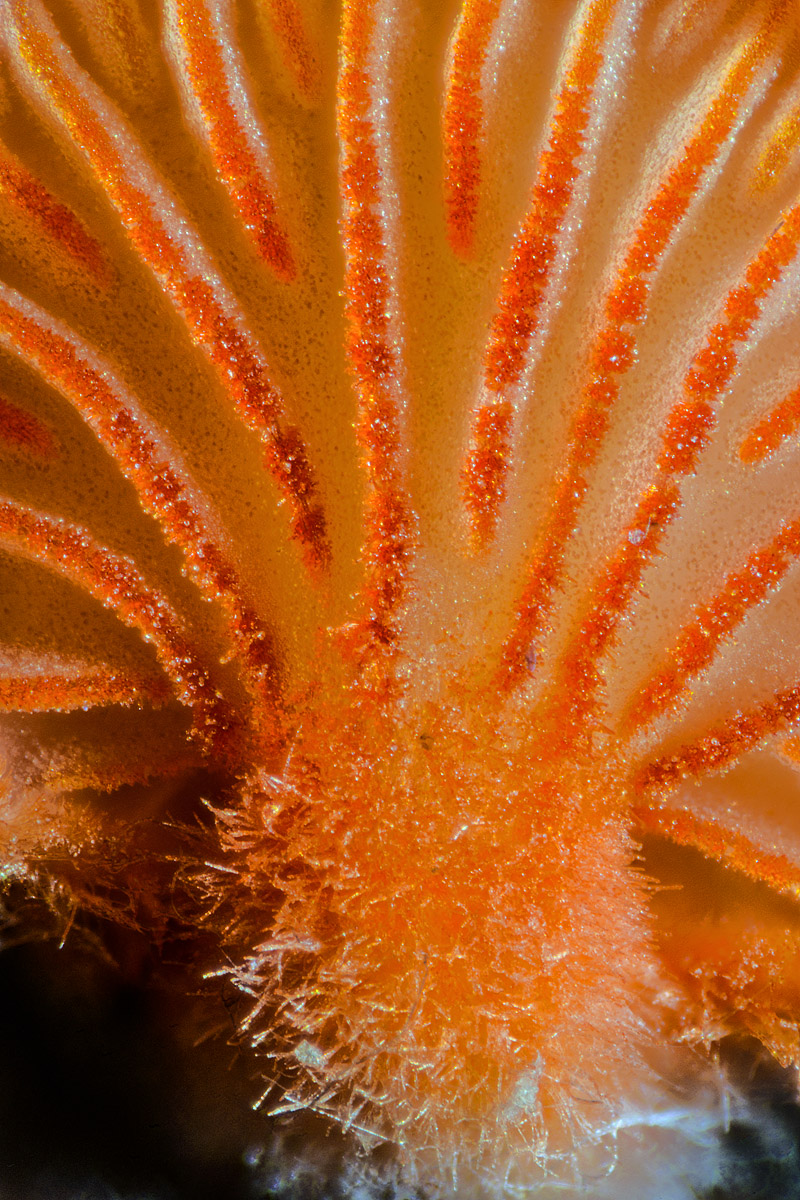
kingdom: Fungi
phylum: Basidiomycota
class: Agaricomycetes
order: Agaricales
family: Crepidotaceae
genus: Crepidotus
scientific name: Crepidotus cinnabarinus
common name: cinnober-muslingesvamp
